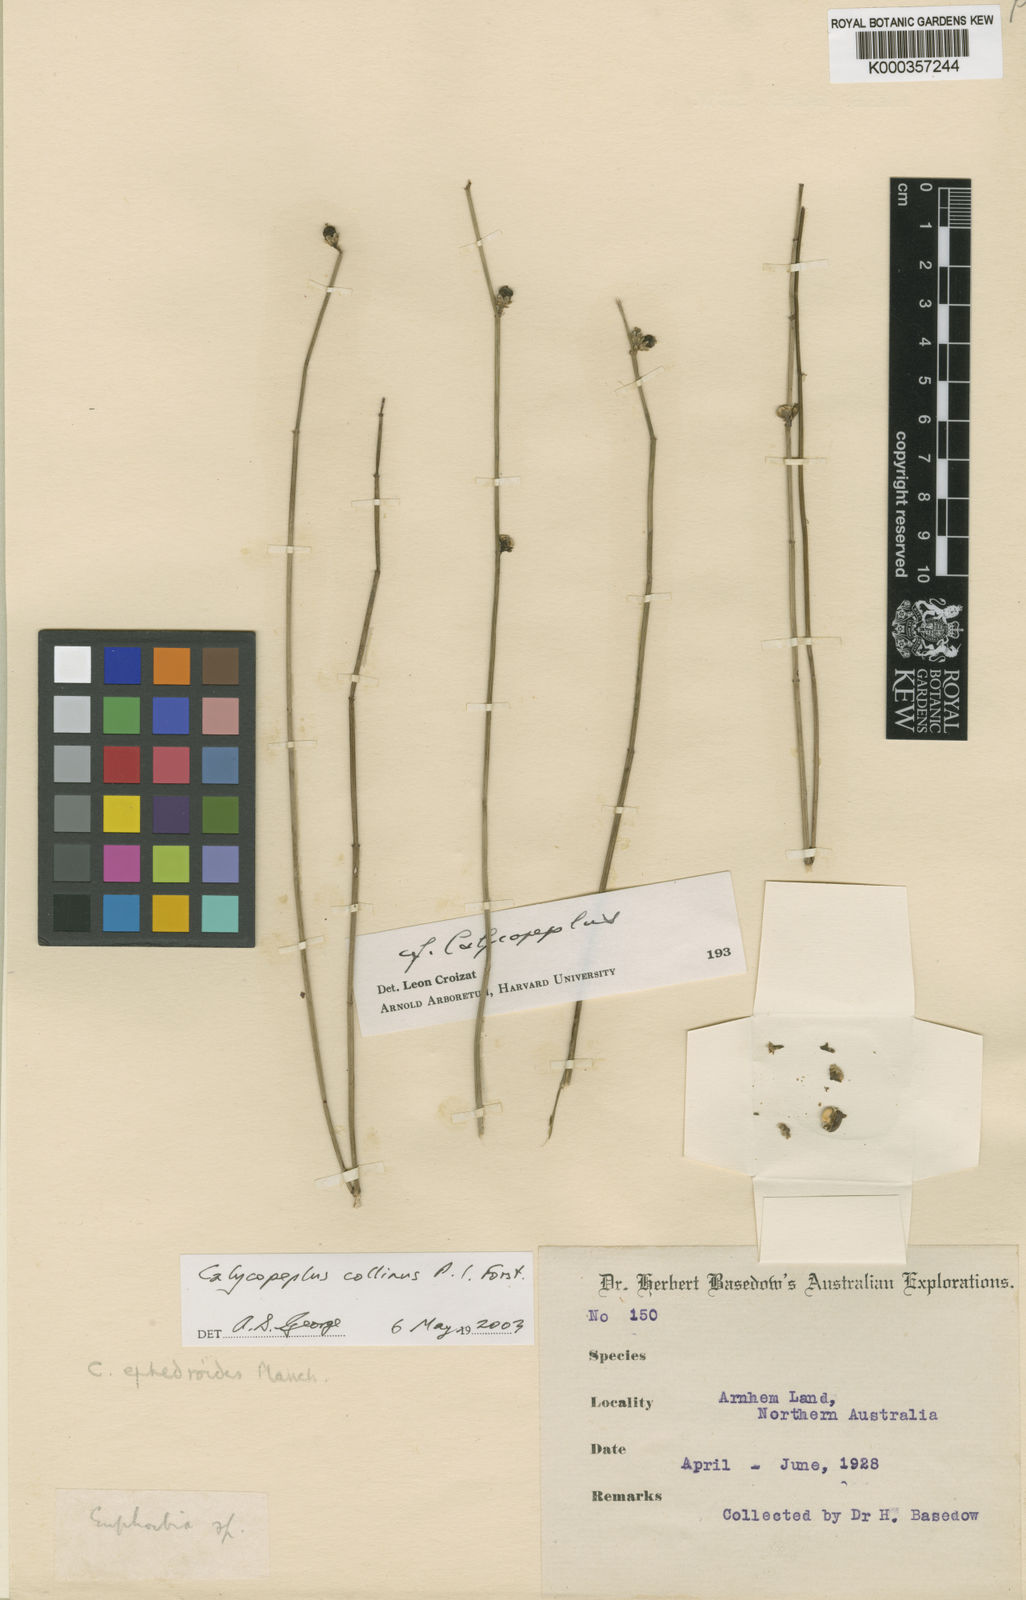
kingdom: Plantae
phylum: Tracheophyta
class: Magnoliopsida
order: Malpighiales
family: Euphorbiaceae
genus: Calycopeplus
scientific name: Calycopeplus collinus
